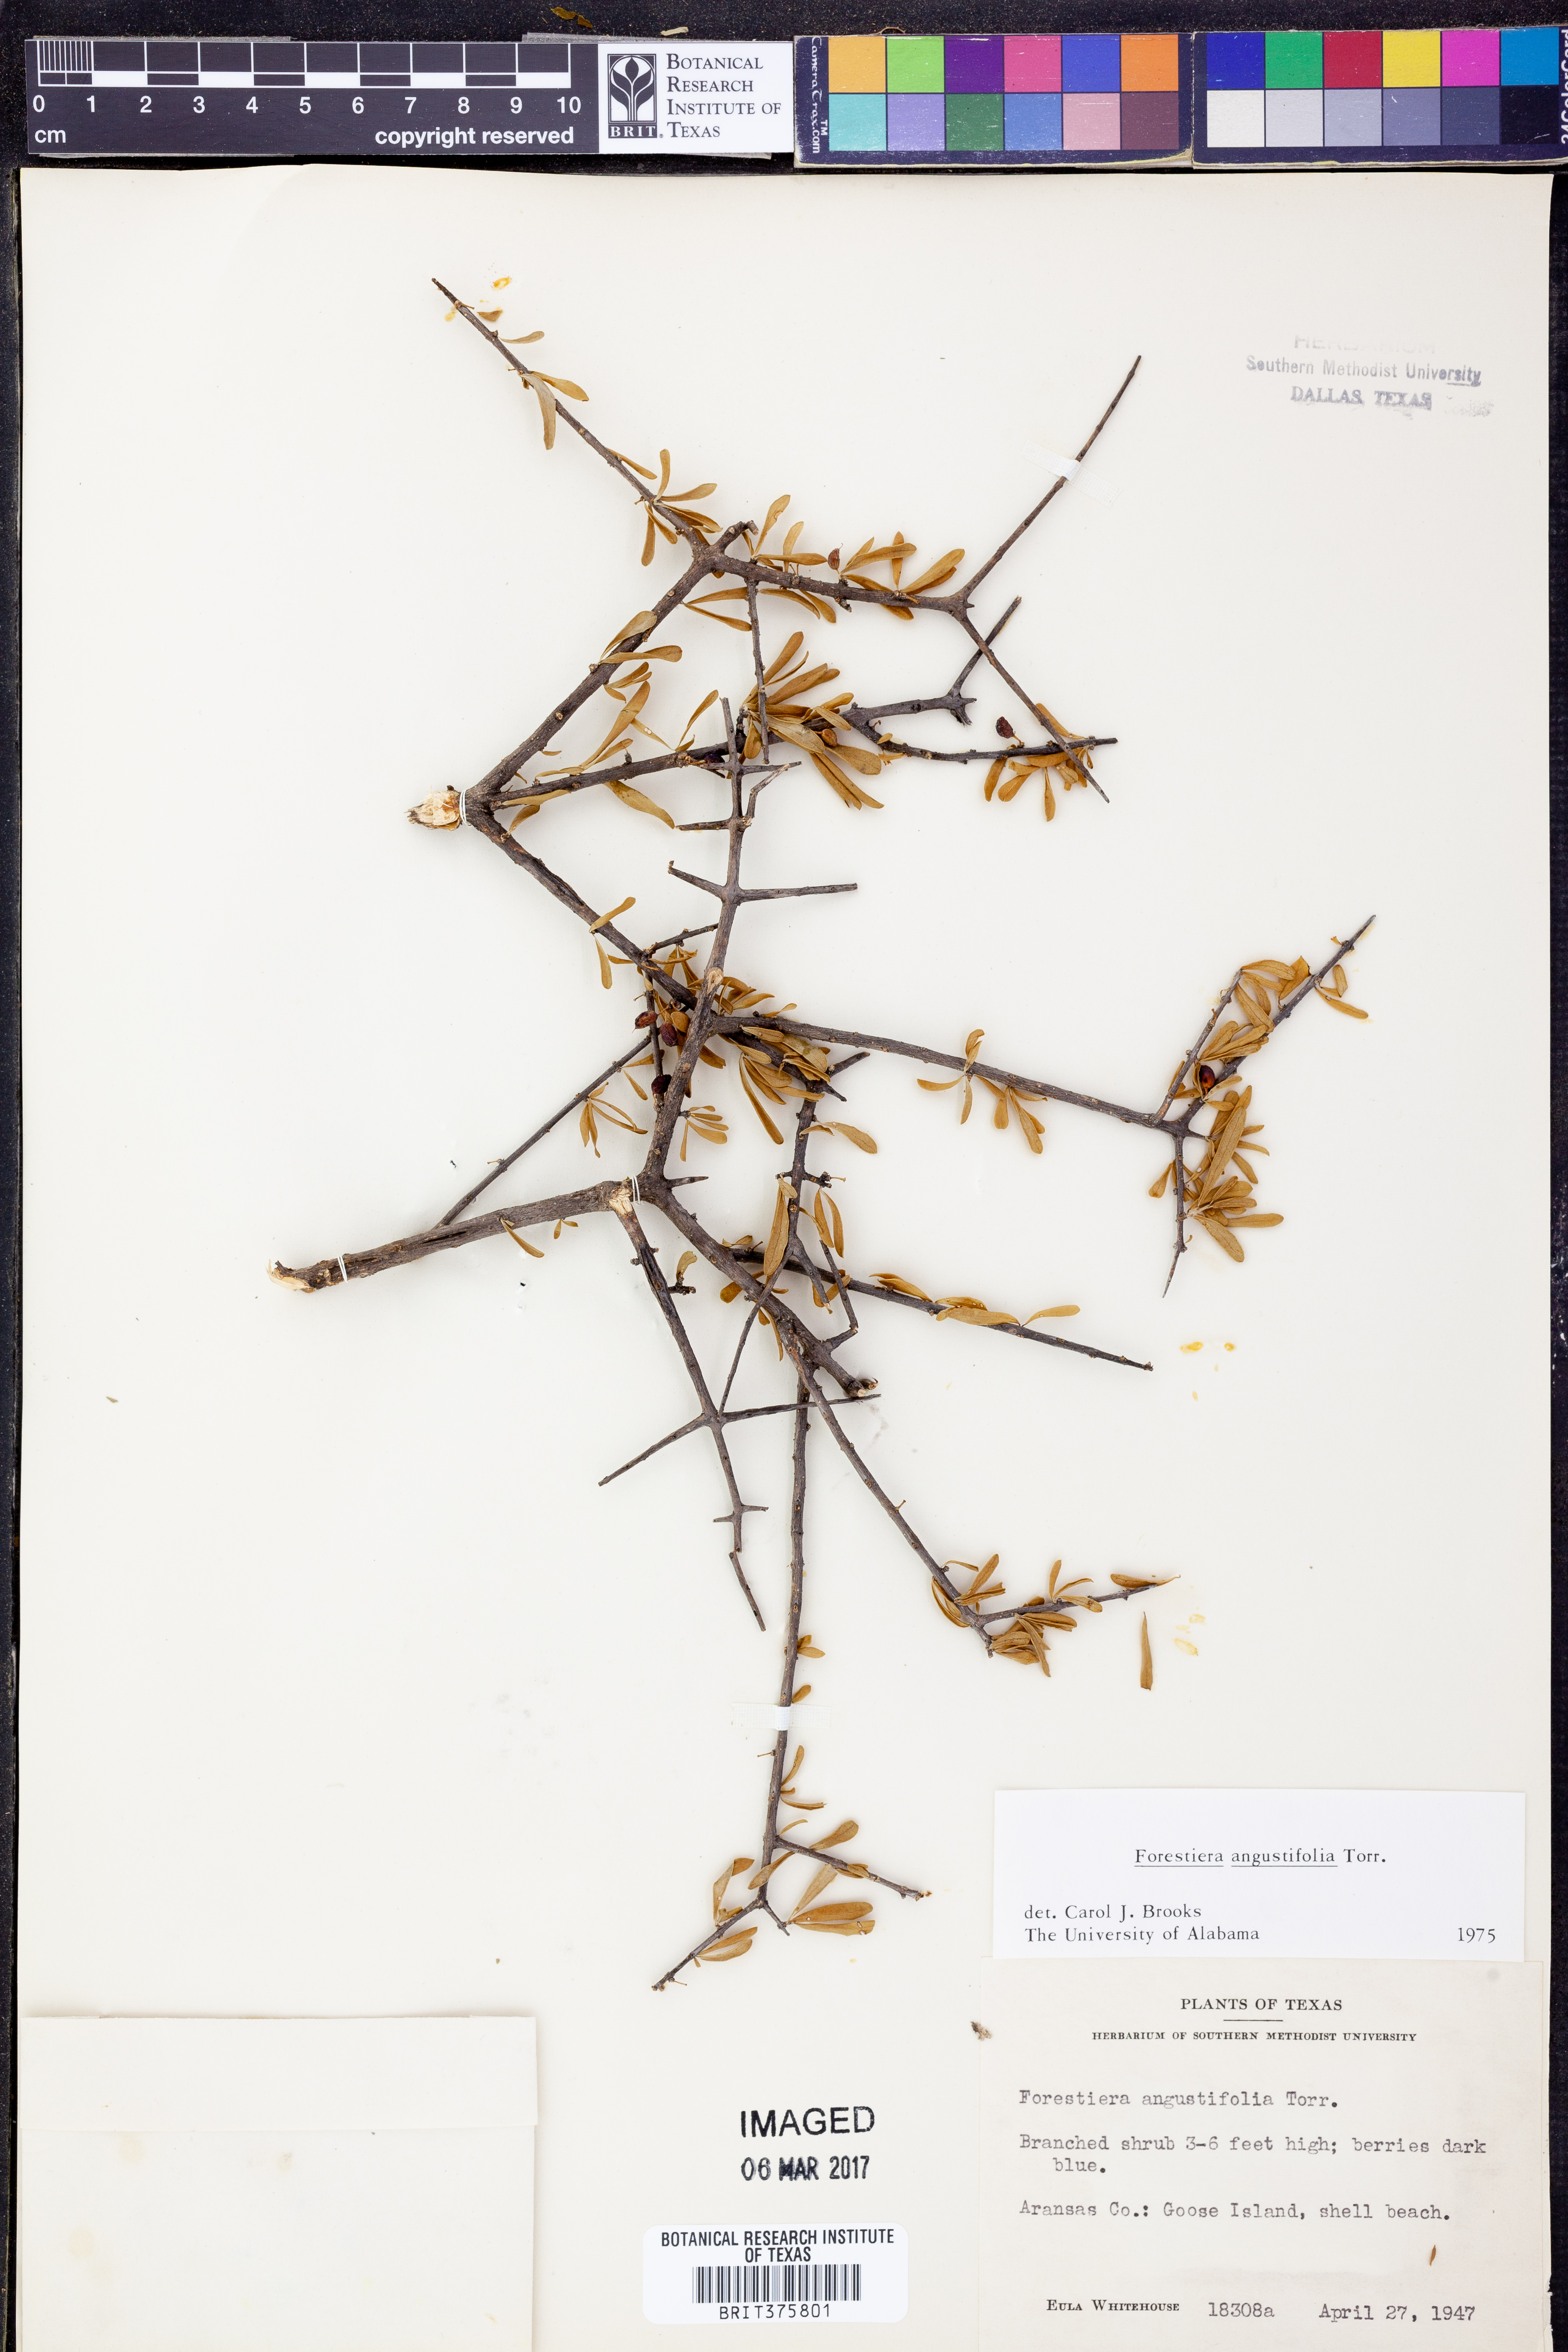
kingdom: Plantae
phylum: Tracheophyta
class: Magnoliopsida
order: Lamiales
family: Oleaceae
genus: Forestiera
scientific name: Forestiera angustifolia
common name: Elbowbush
